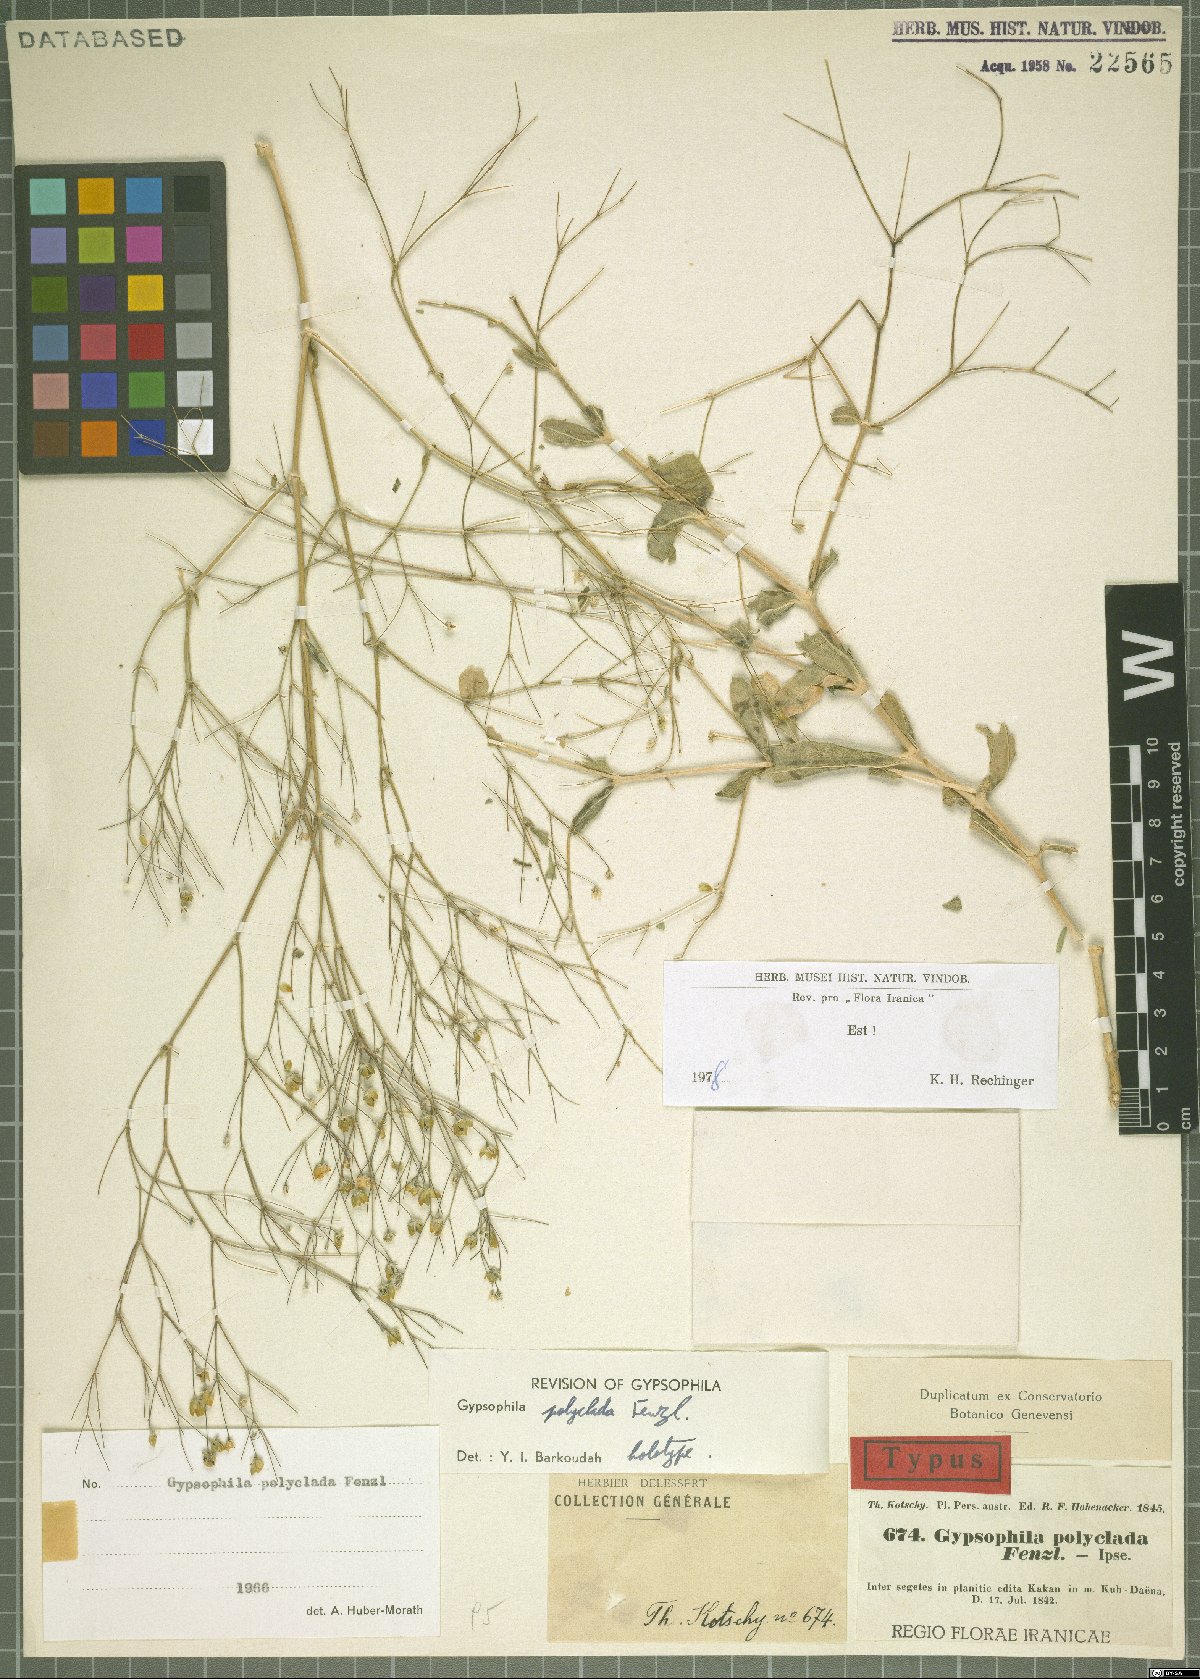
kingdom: Plantae
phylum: Tracheophyta
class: Magnoliopsida
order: Caryophyllales
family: Caryophyllaceae
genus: Gypsophila
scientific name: Gypsophila polyclada
